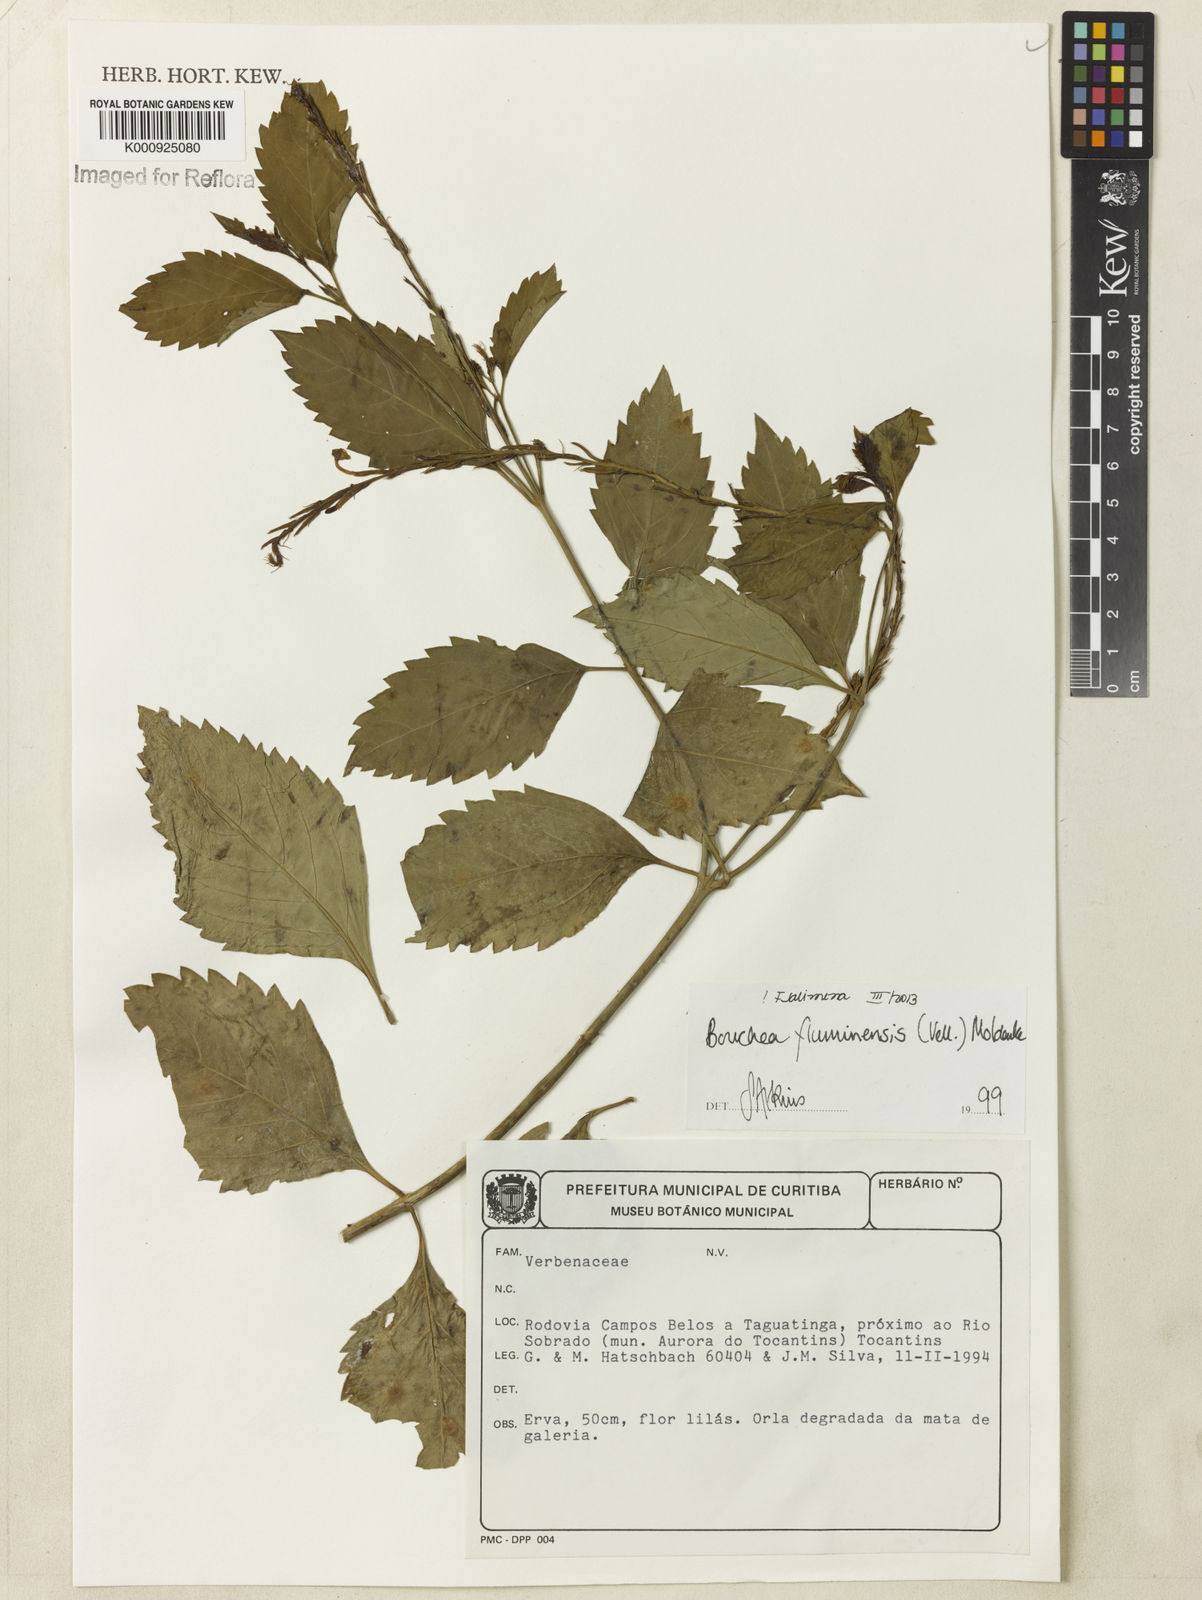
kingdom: Plantae
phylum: Tracheophyta
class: Magnoliopsida
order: Lamiales
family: Verbenaceae
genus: Bouchea
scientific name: Bouchea pseudogervao
